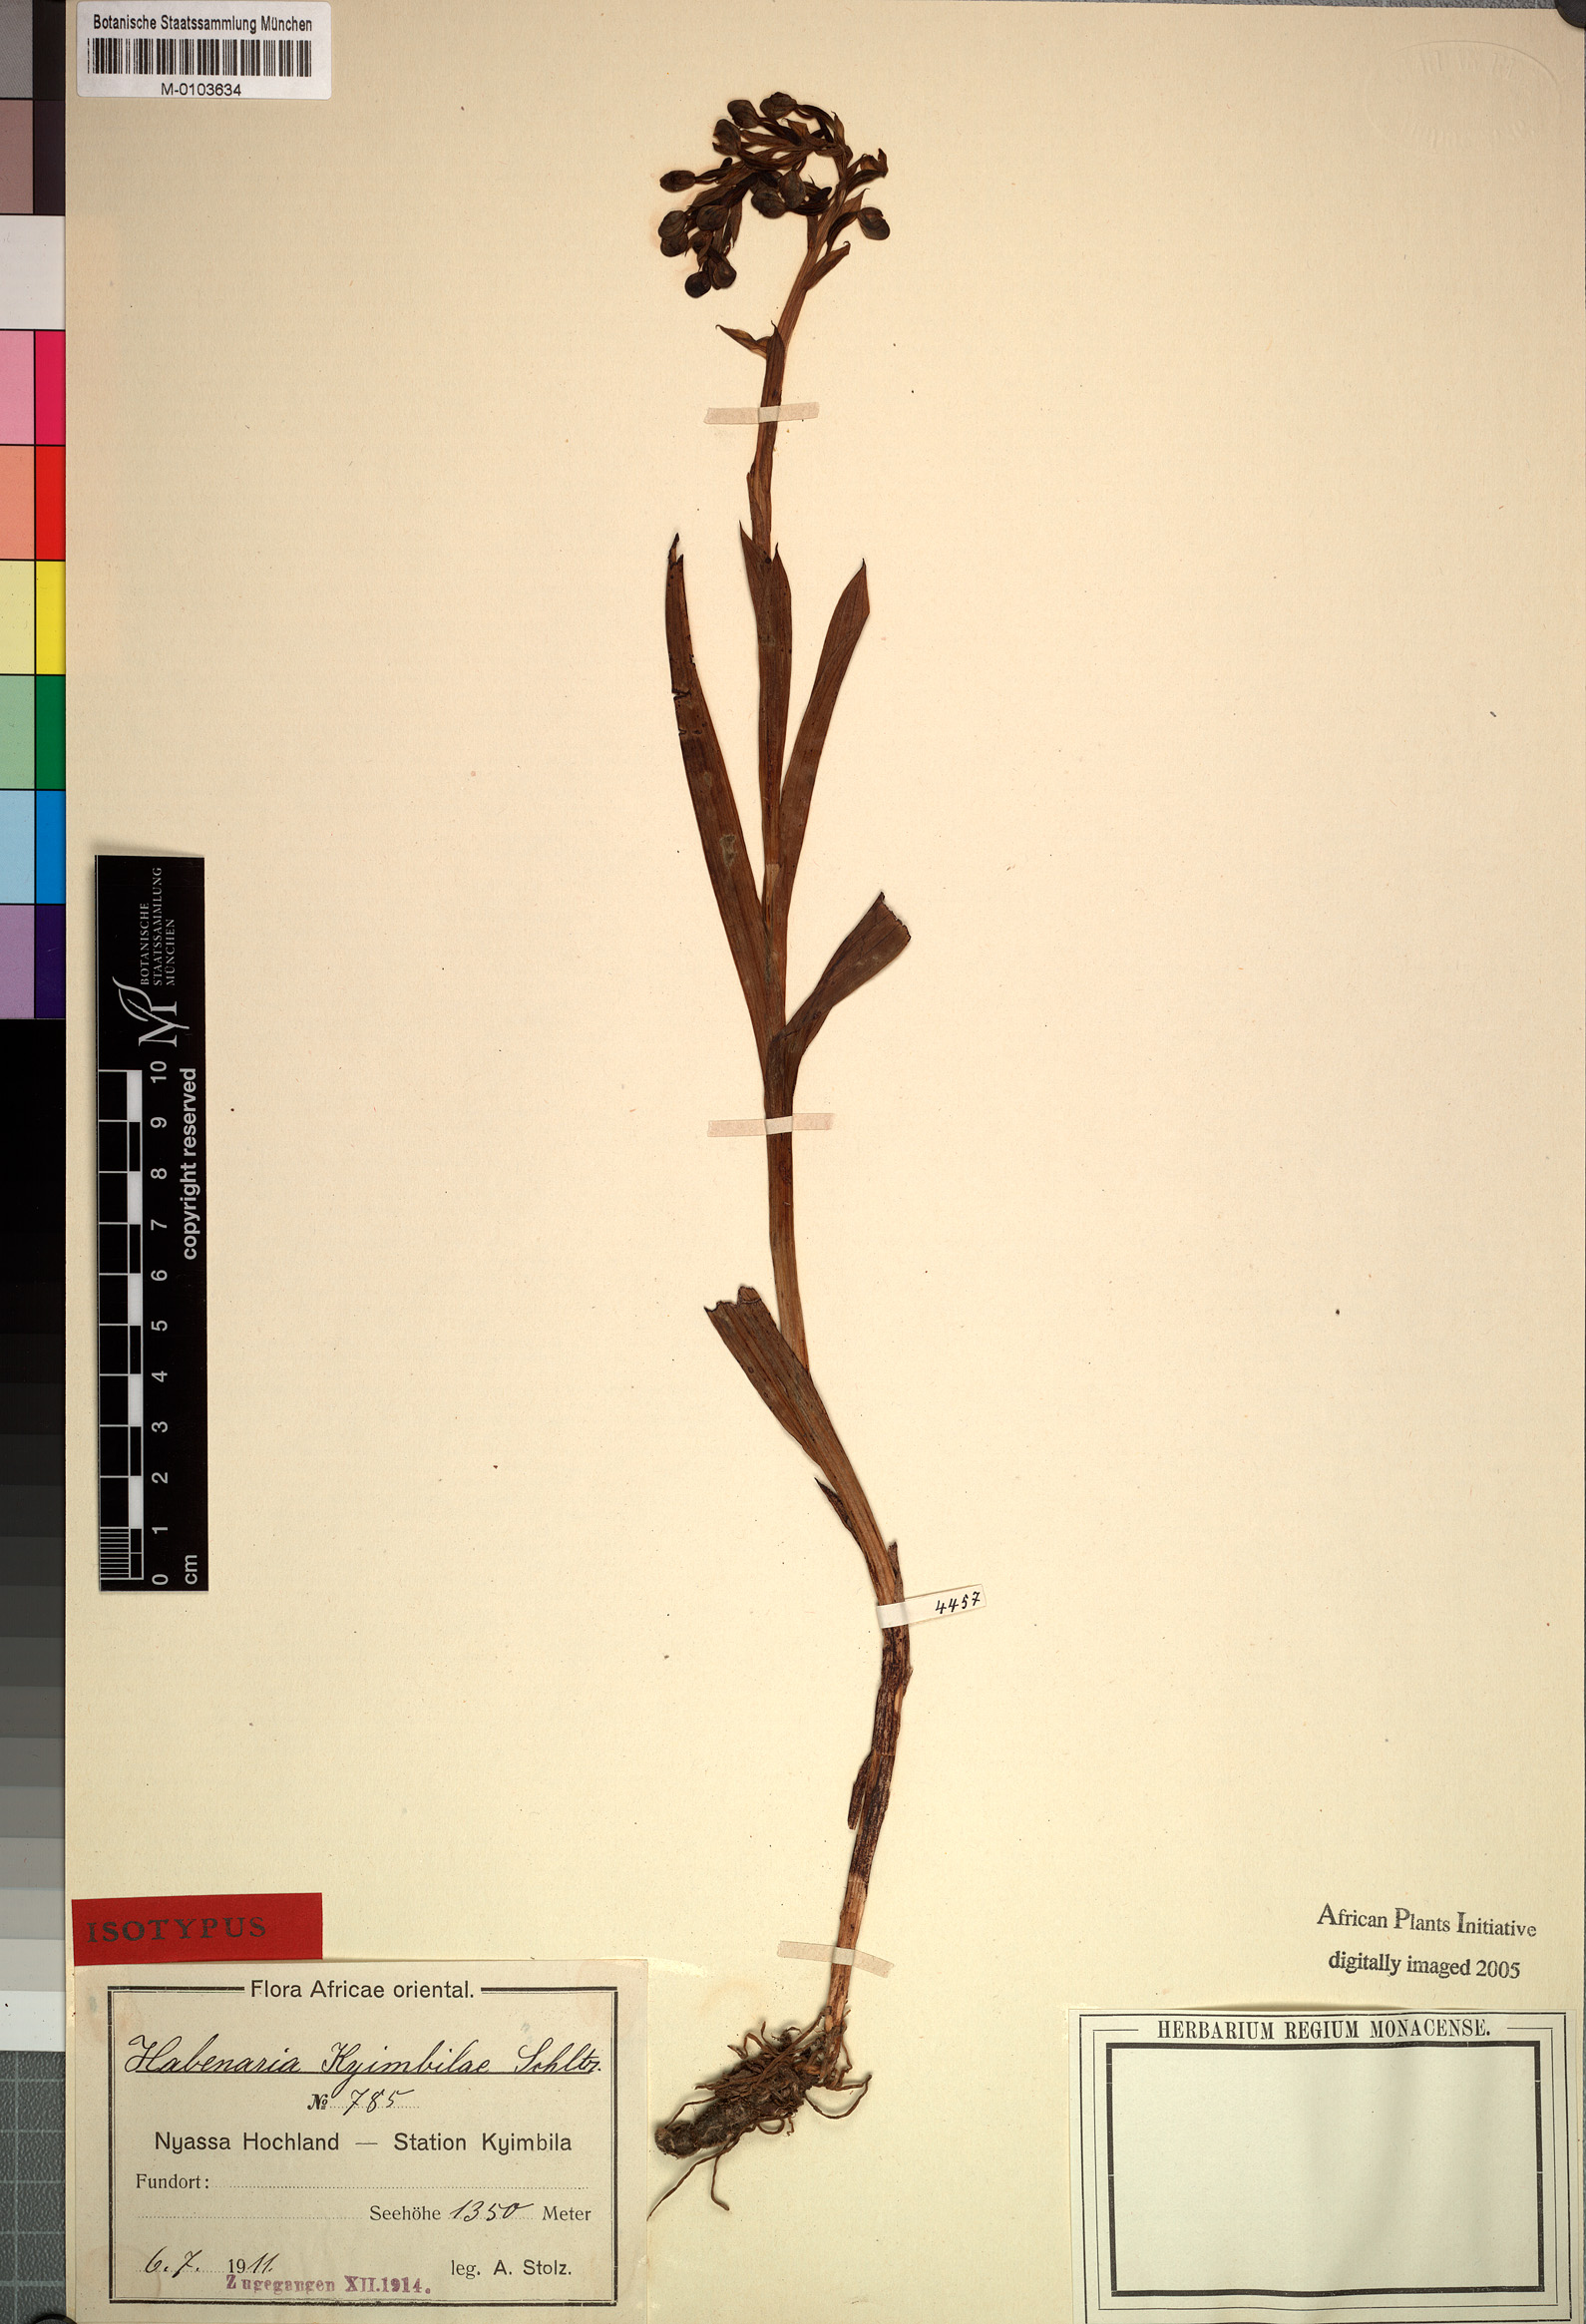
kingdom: Plantae
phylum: Tracheophyta
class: Liliopsida
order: Asparagales
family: Orchidaceae
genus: Habenaria
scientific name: Habenaria kyimbilae
